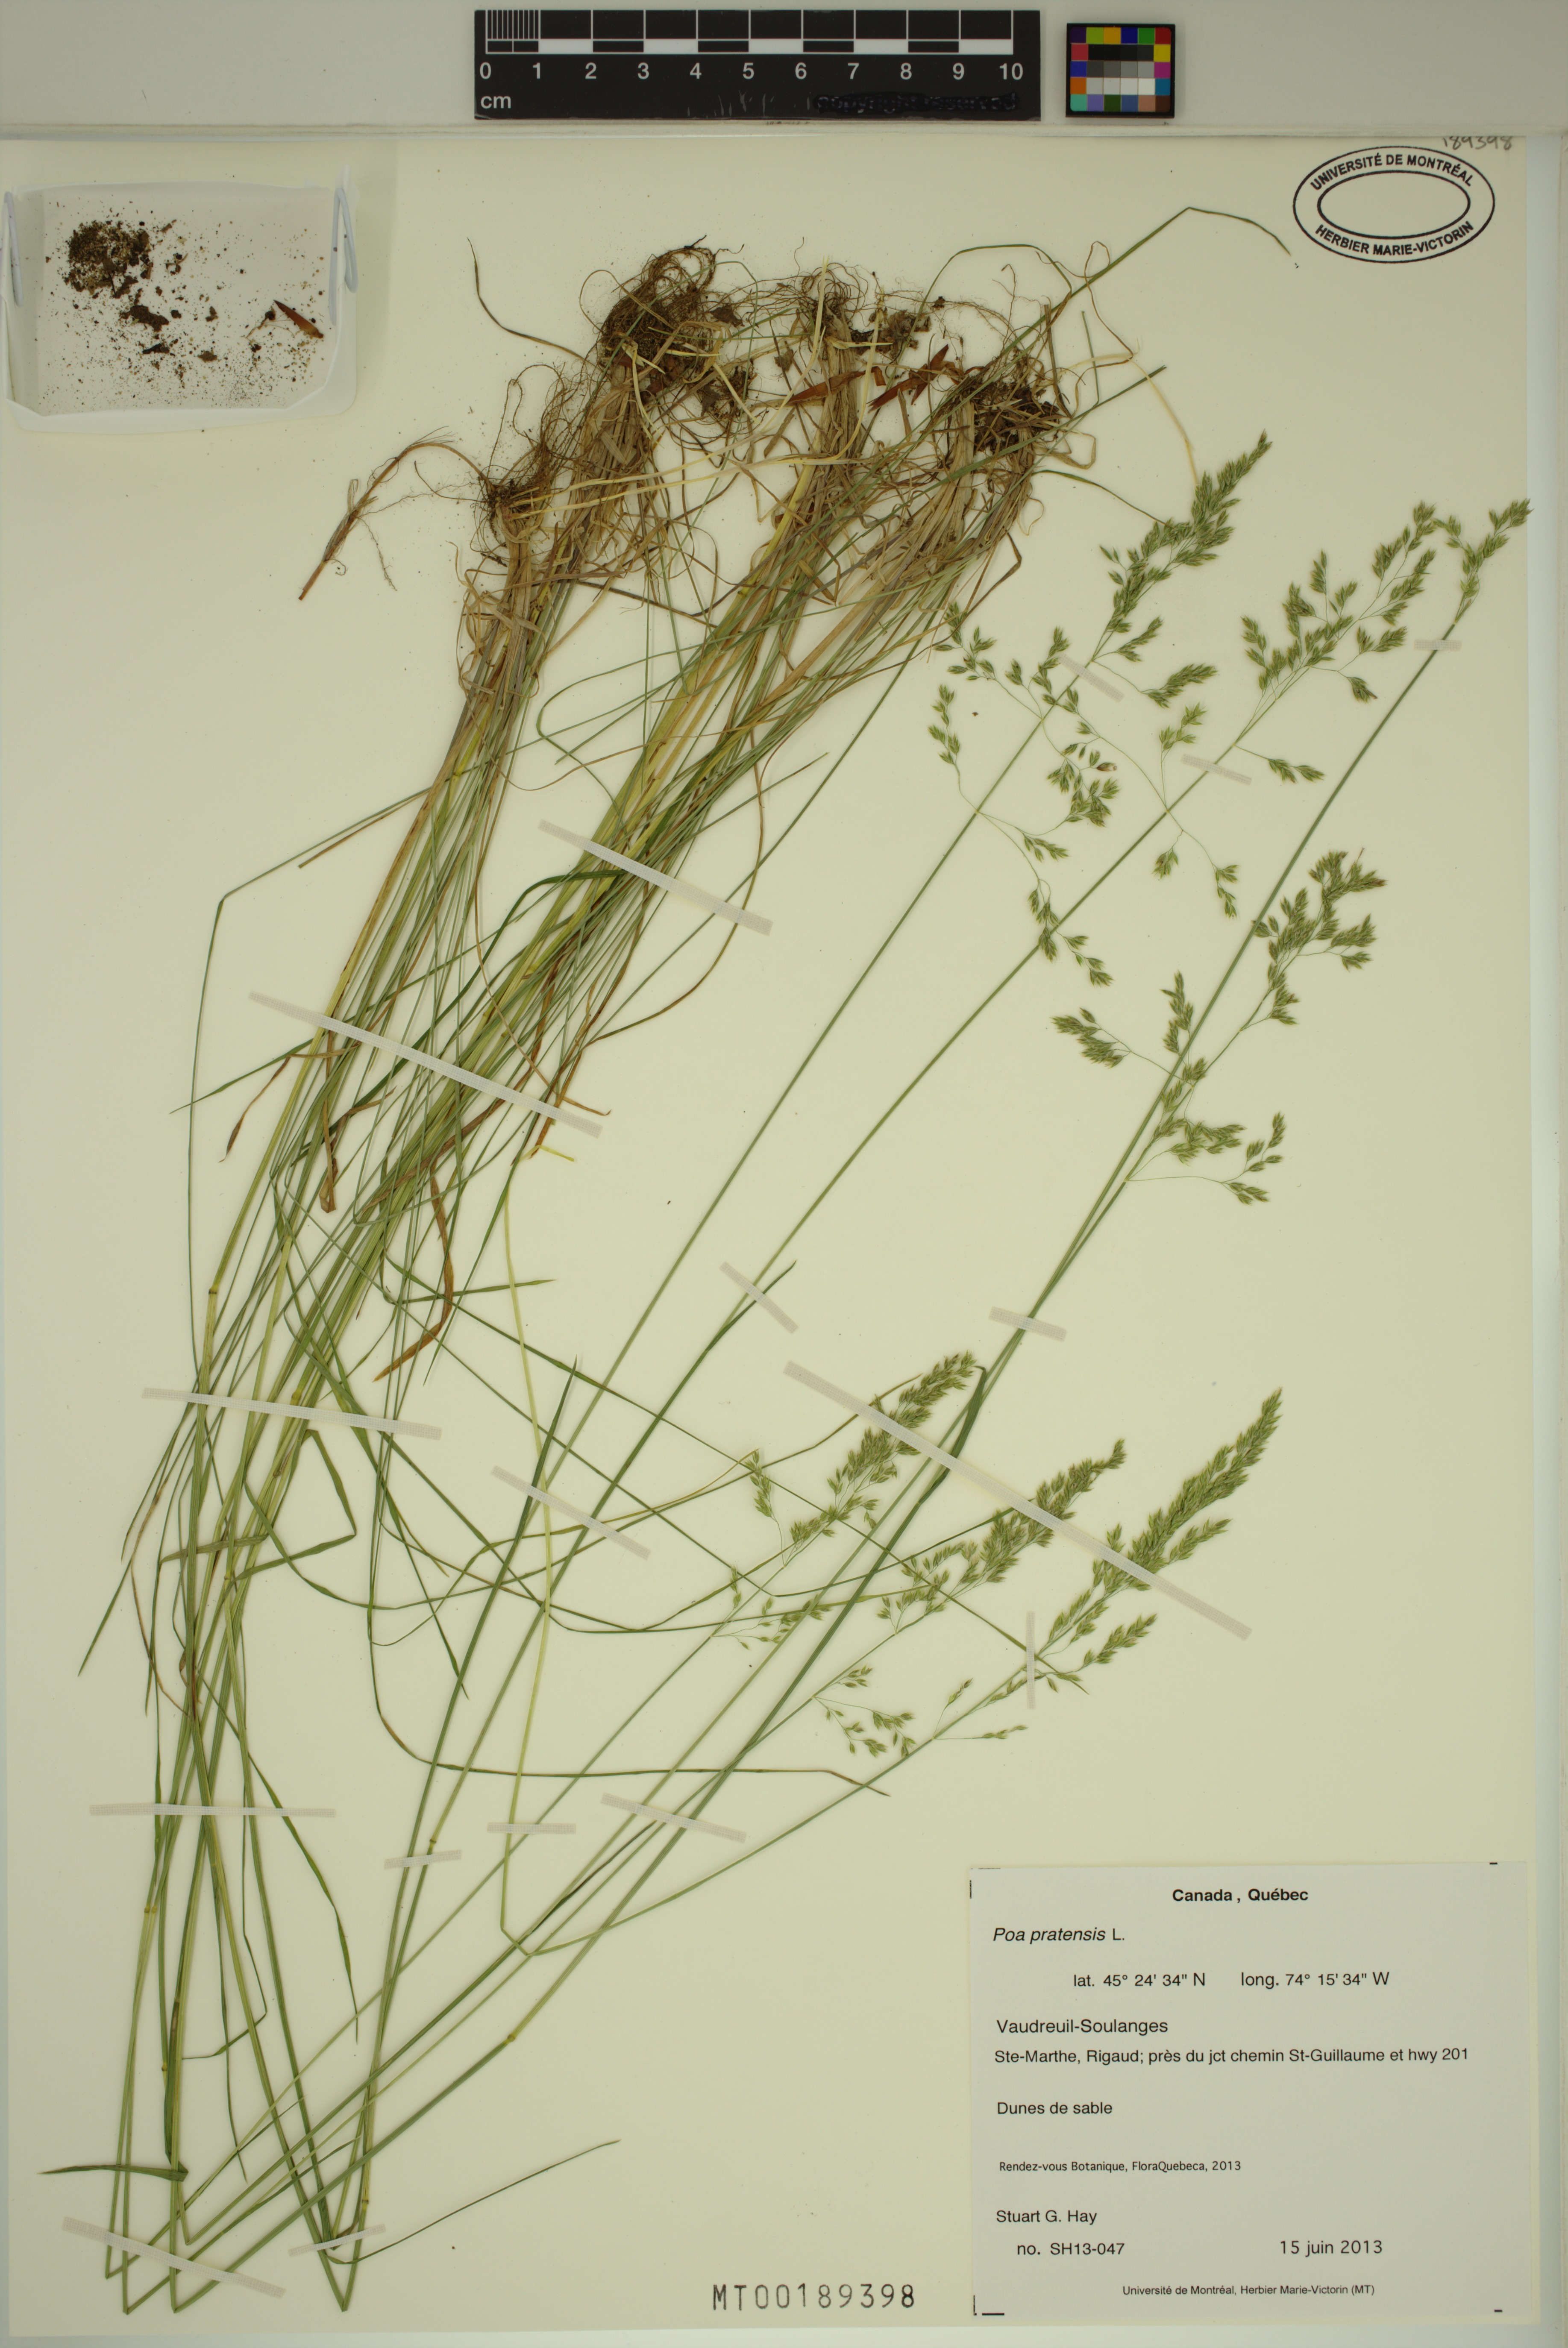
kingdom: Plantae
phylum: Tracheophyta
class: Liliopsida
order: Poales
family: Poaceae
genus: Poa
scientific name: Poa pratensis
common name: Kentucky bluegrass
